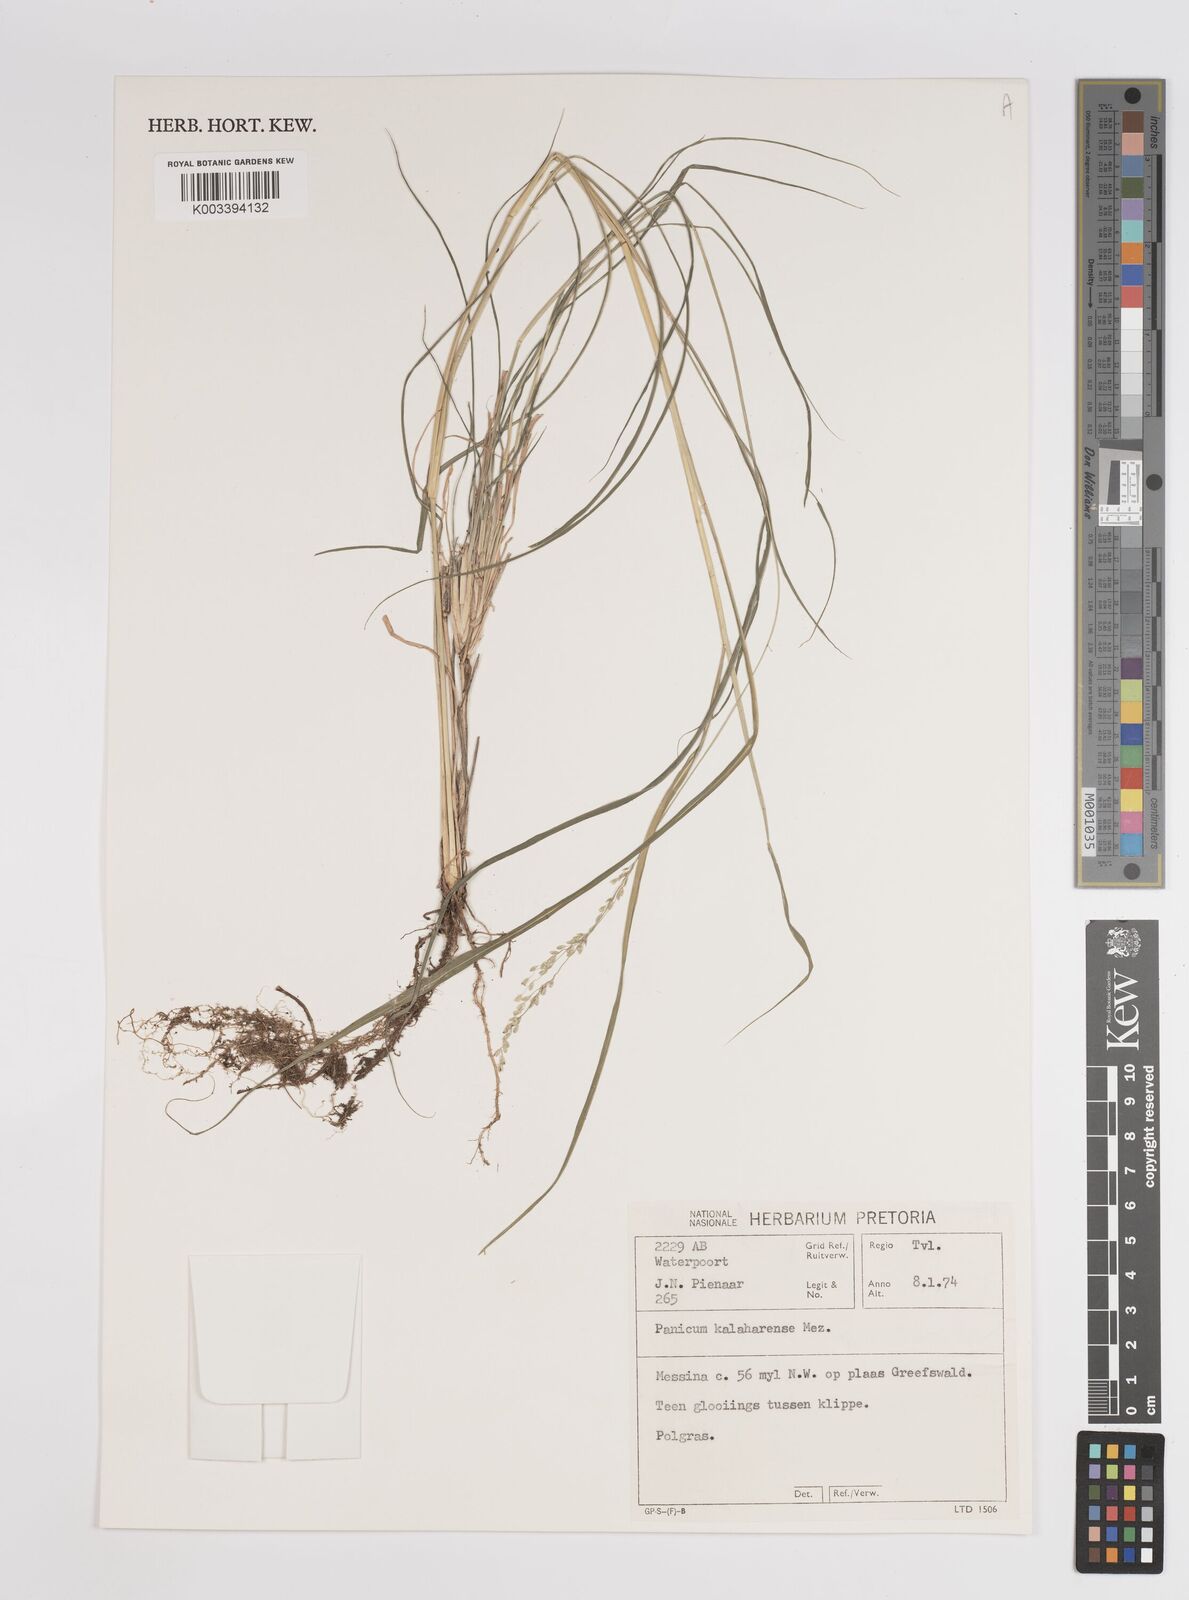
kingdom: Plantae
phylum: Tracheophyta
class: Liliopsida
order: Poales
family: Poaceae
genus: Panicum
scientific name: Panicum kalaharense
